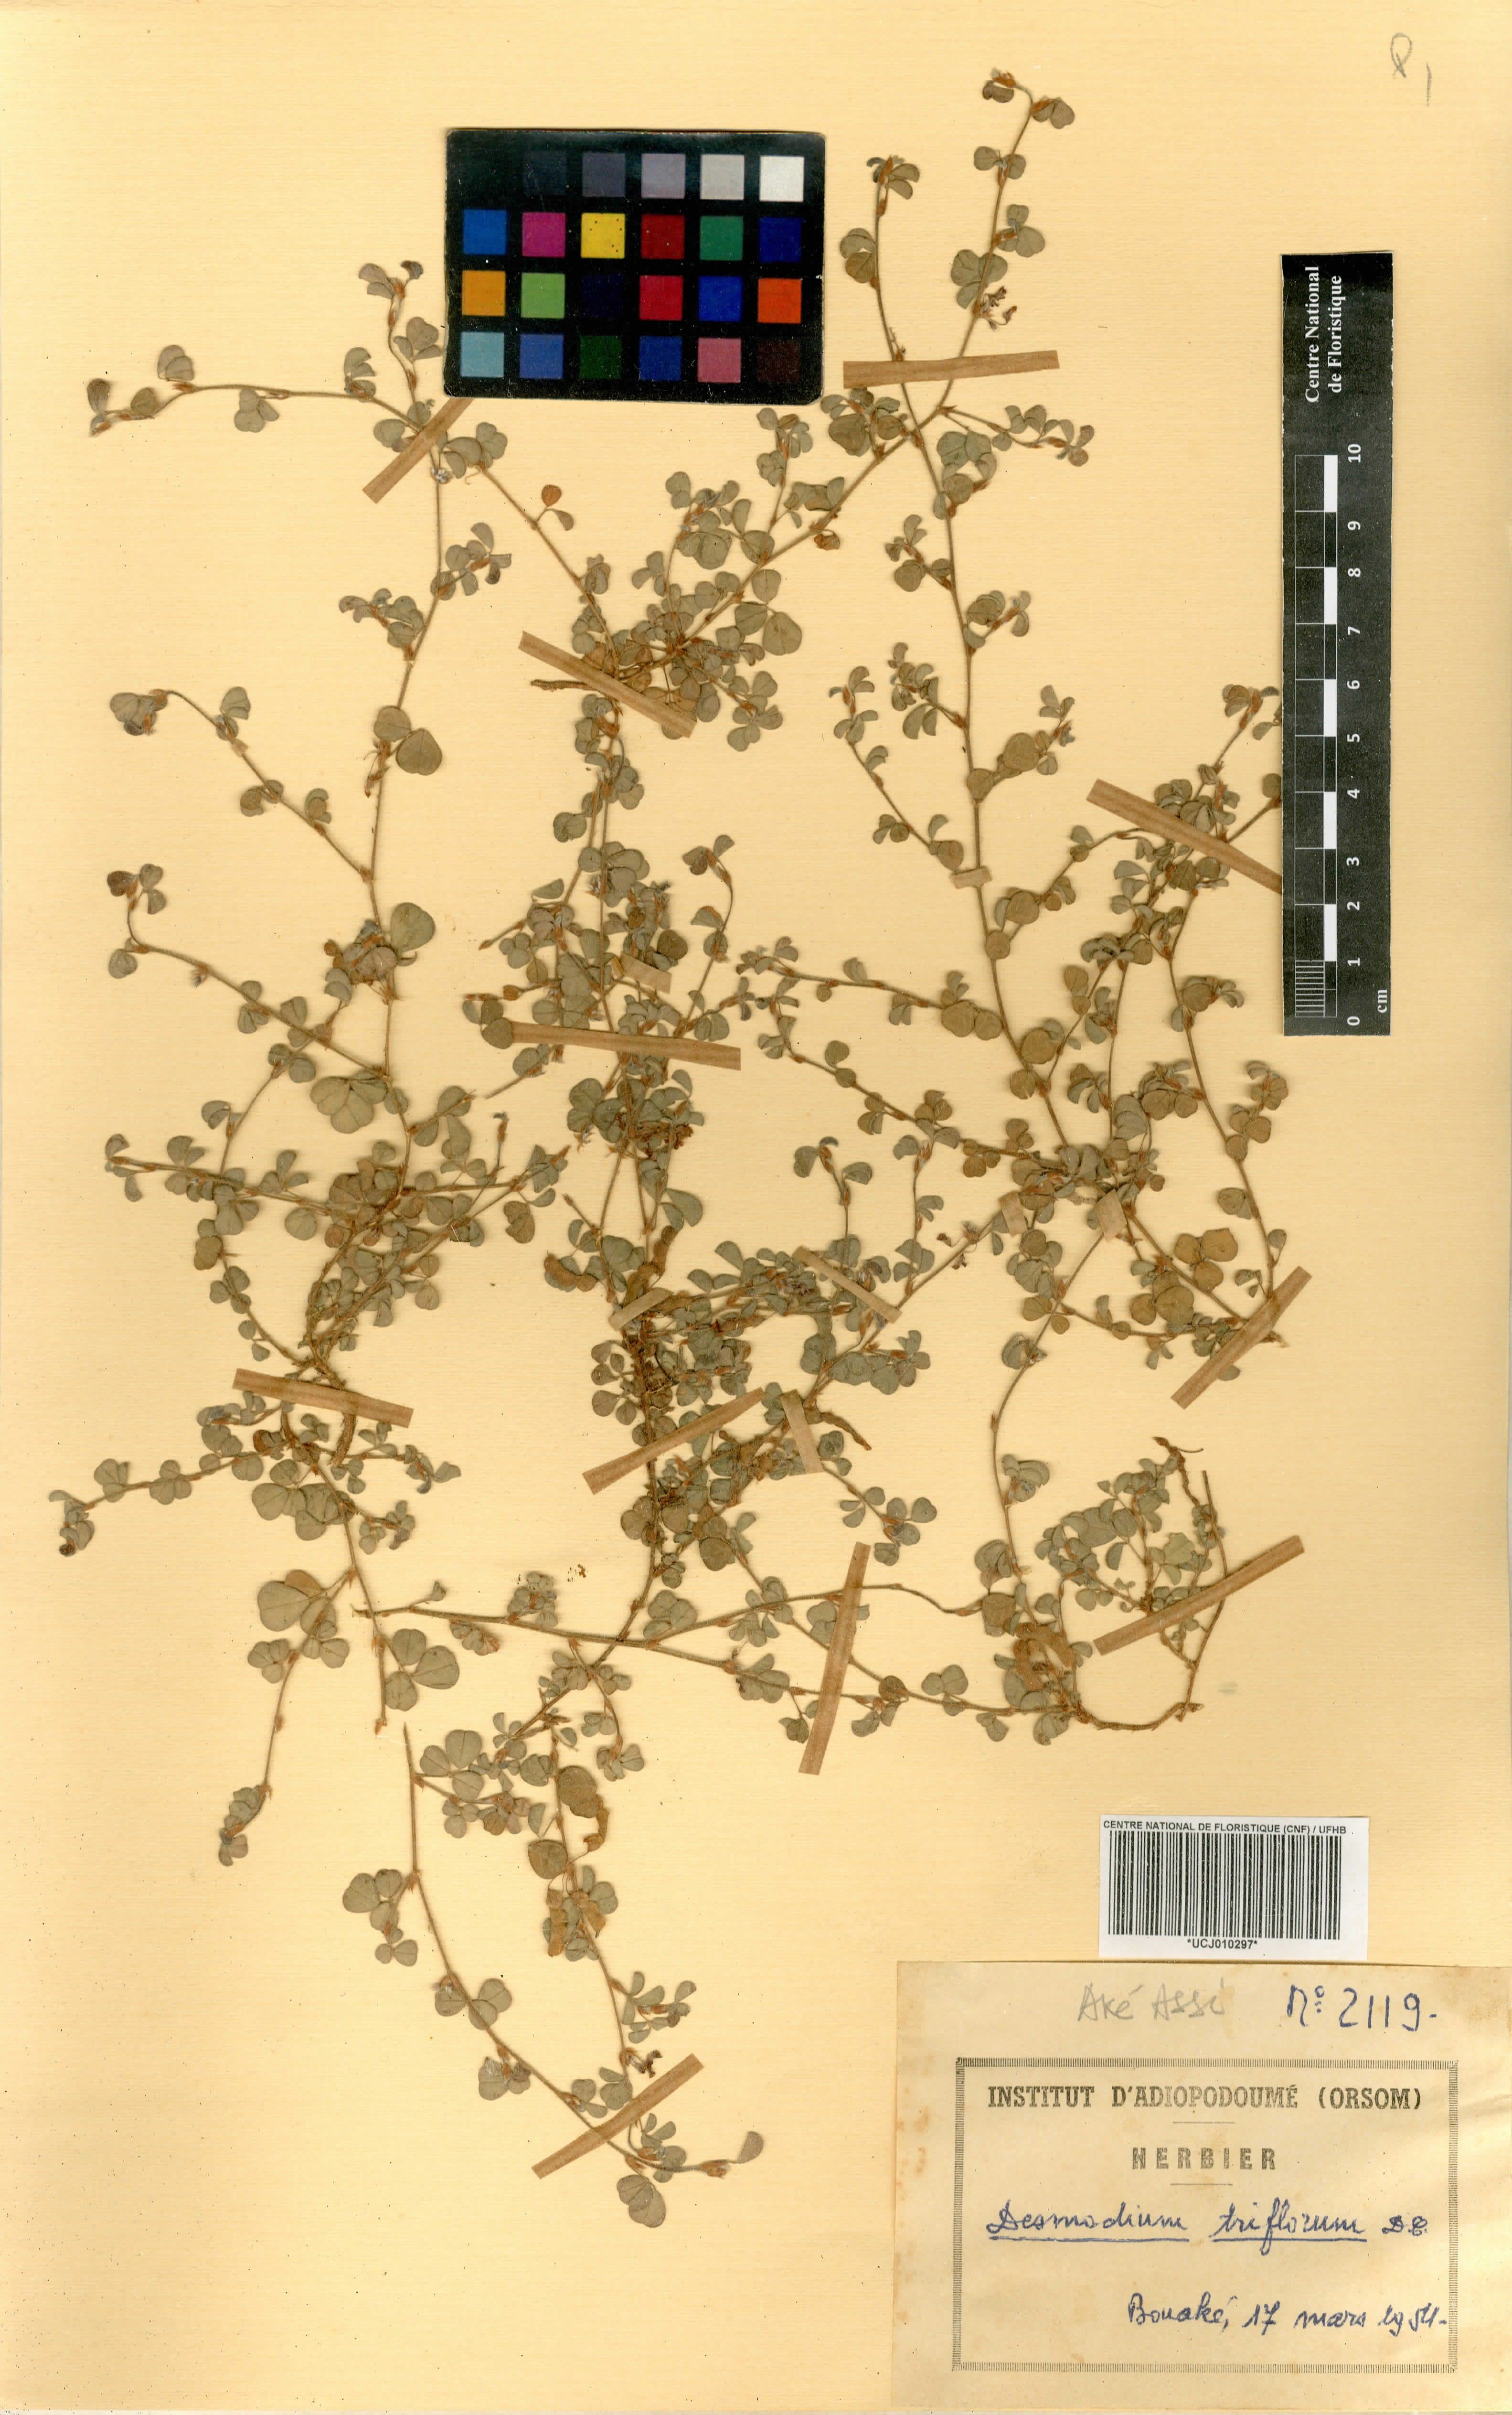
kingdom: Plantae
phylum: Tracheophyta
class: Magnoliopsida
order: Fabales
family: Fabaceae
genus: Grona
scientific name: Grona triflora
